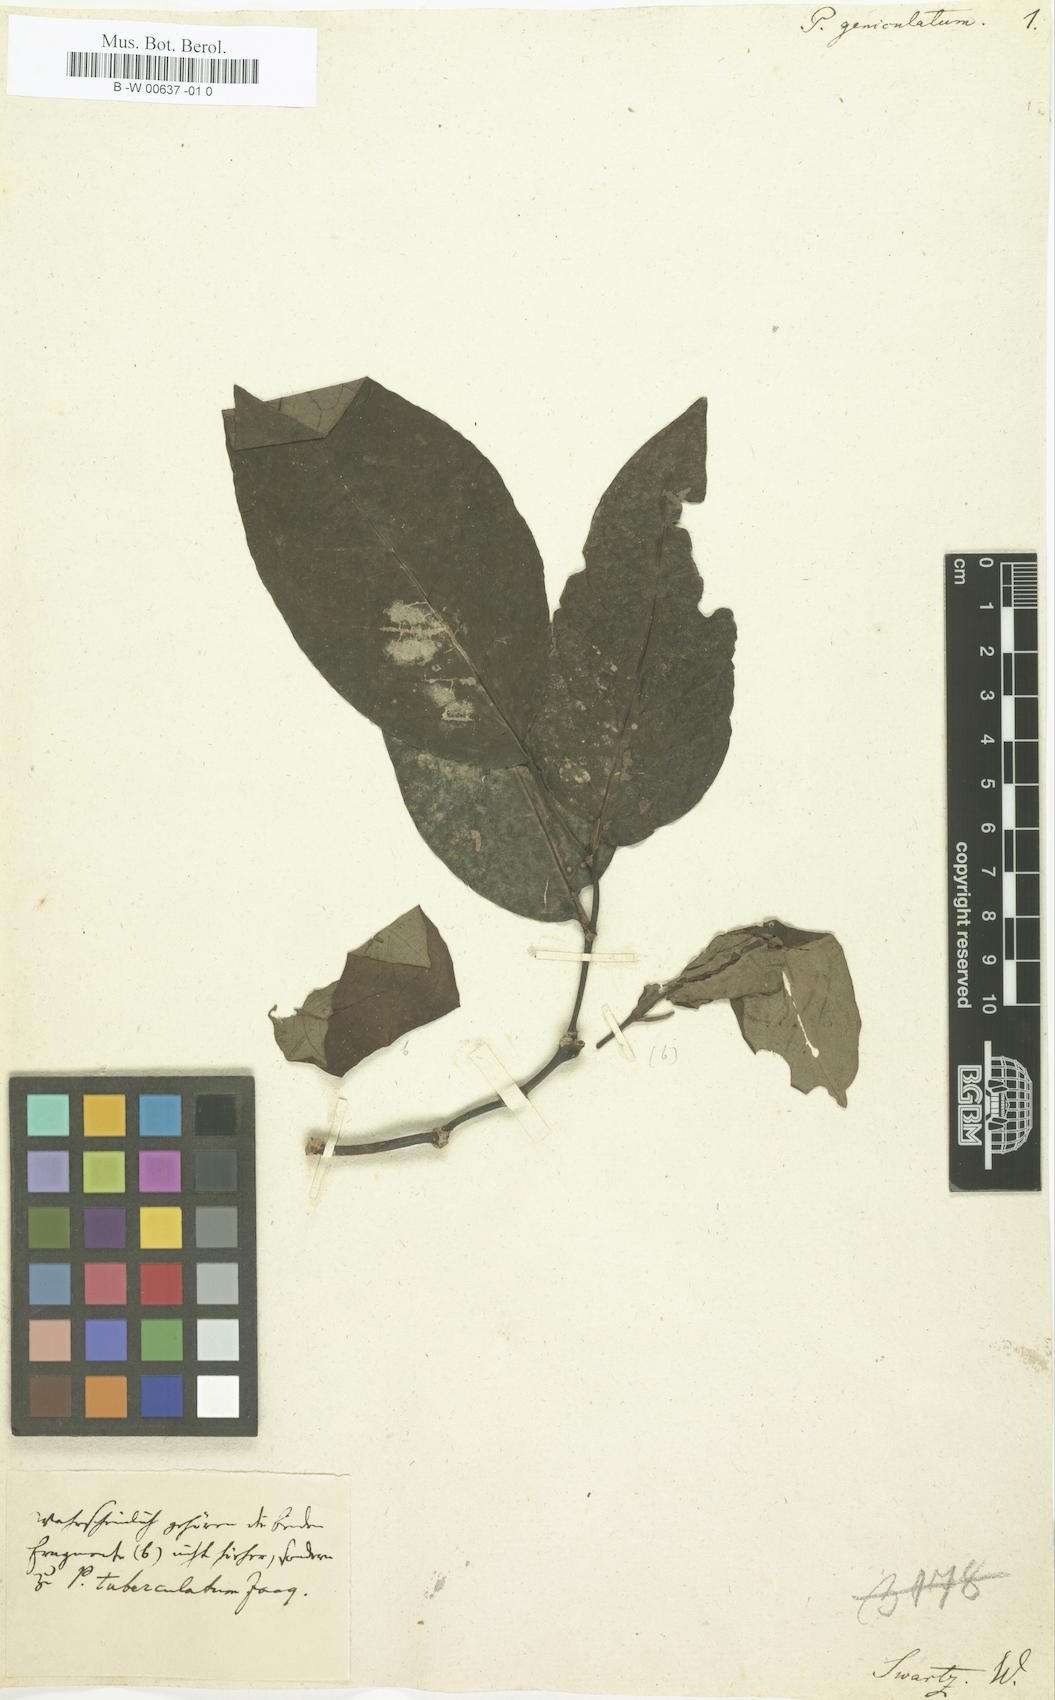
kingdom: Plantae
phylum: Tracheophyta
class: Magnoliopsida
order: Piperales
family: Piperaceae
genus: Piper
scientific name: Piper arboreum
